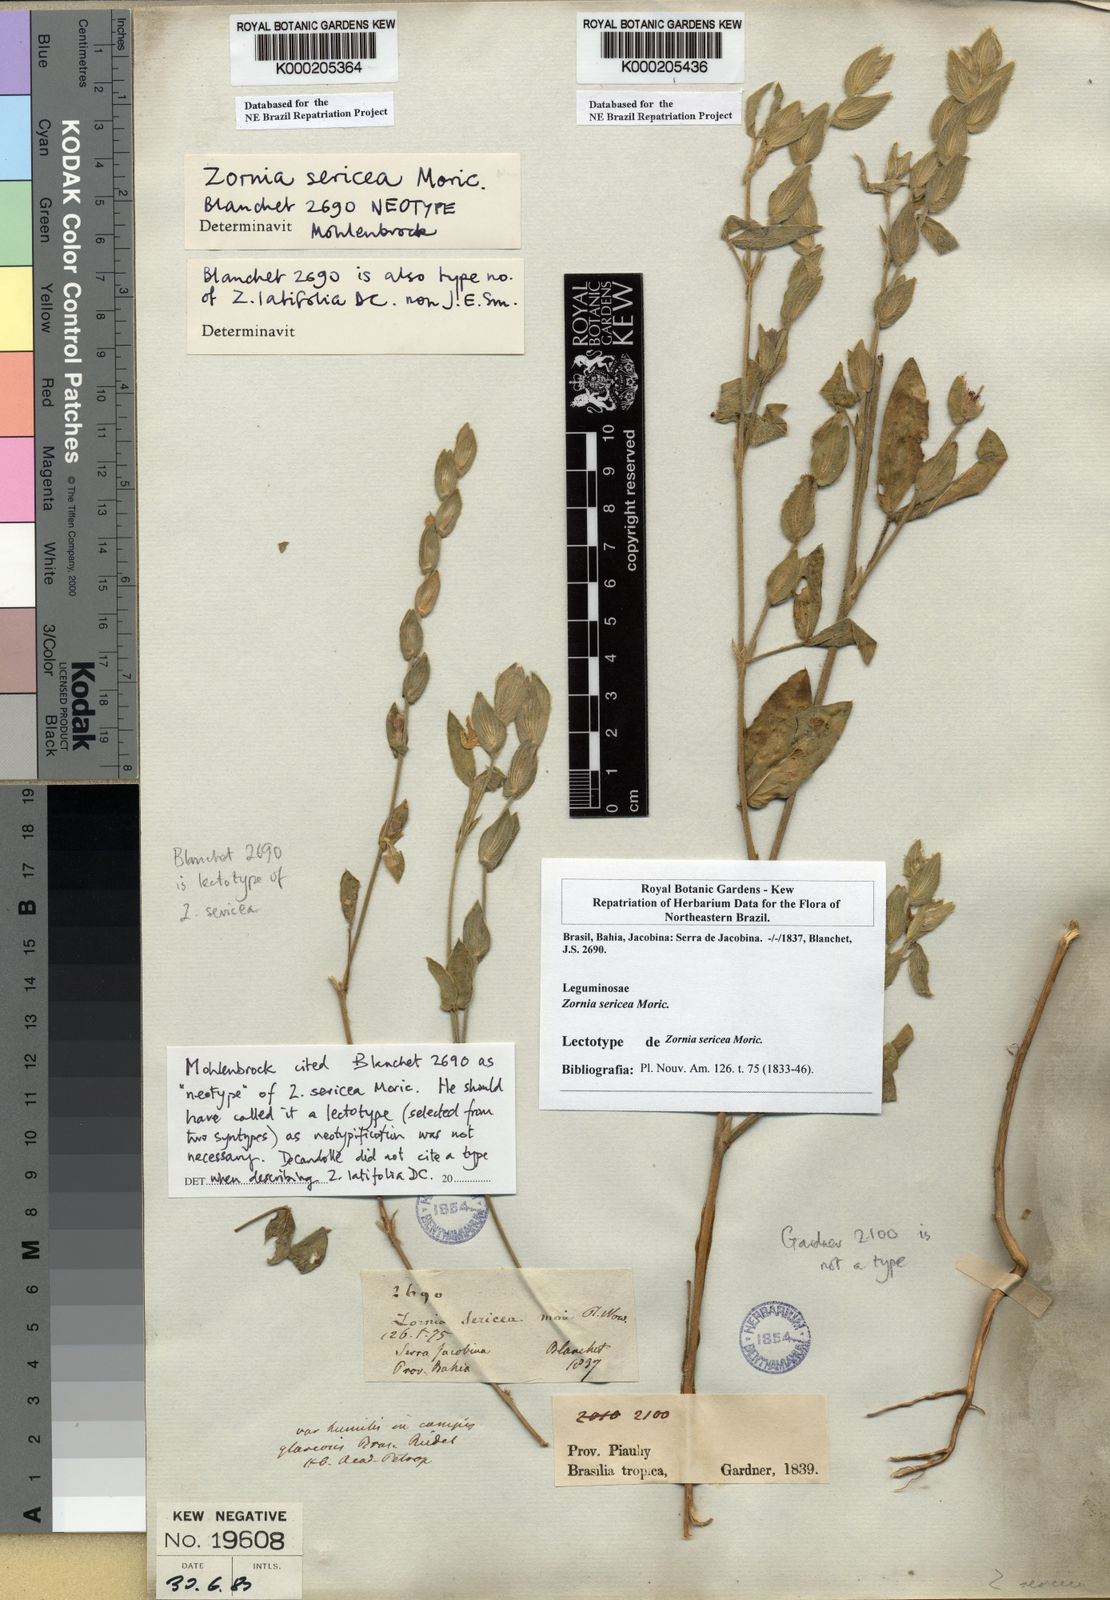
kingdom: Plantae
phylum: Tracheophyta
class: Magnoliopsida
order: Fabales
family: Fabaceae
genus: Zornia
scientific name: Zornia sericea
